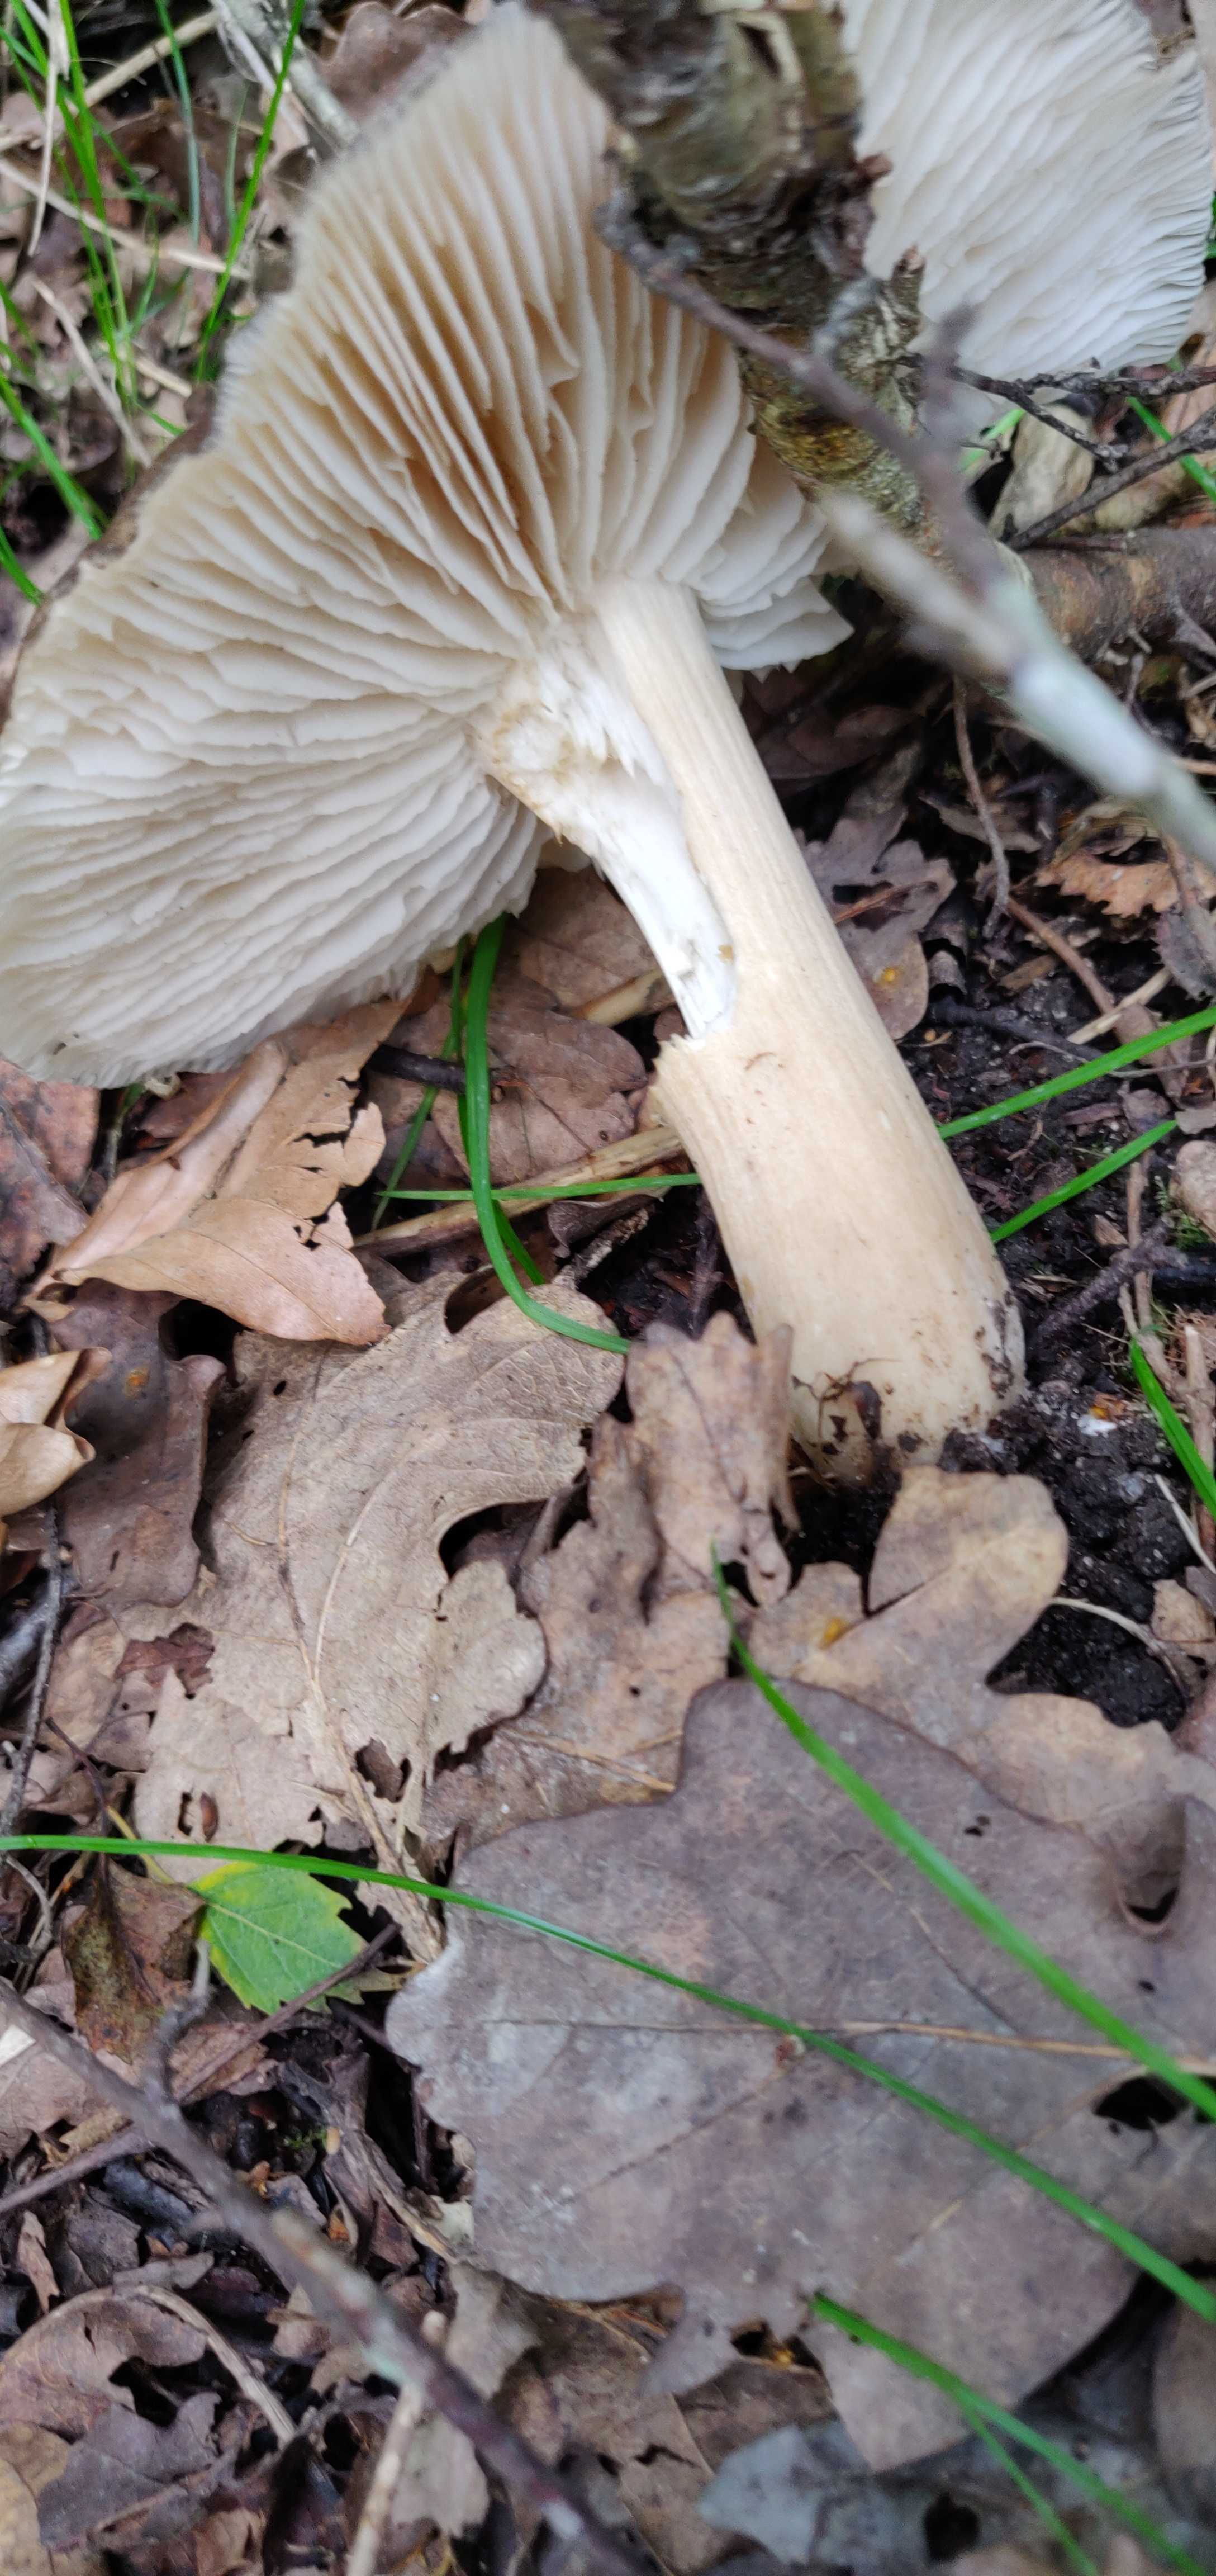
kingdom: Fungi
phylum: Basidiomycota
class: Agaricomycetes
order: Agaricales
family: Tricholomataceae
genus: Megacollybia
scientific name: Megacollybia platyphylla
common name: bredbladet væbnerhat
